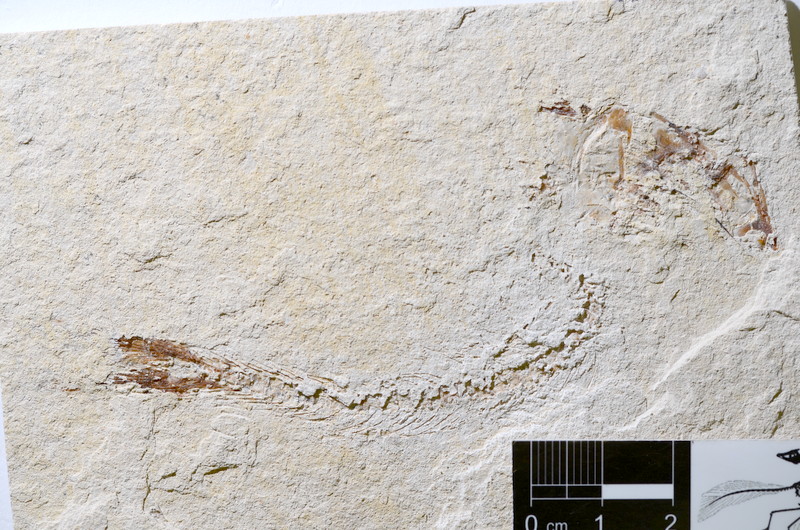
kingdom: Animalia
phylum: Chordata
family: Ascalaboidae
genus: Tharsis
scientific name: Tharsis dubius
